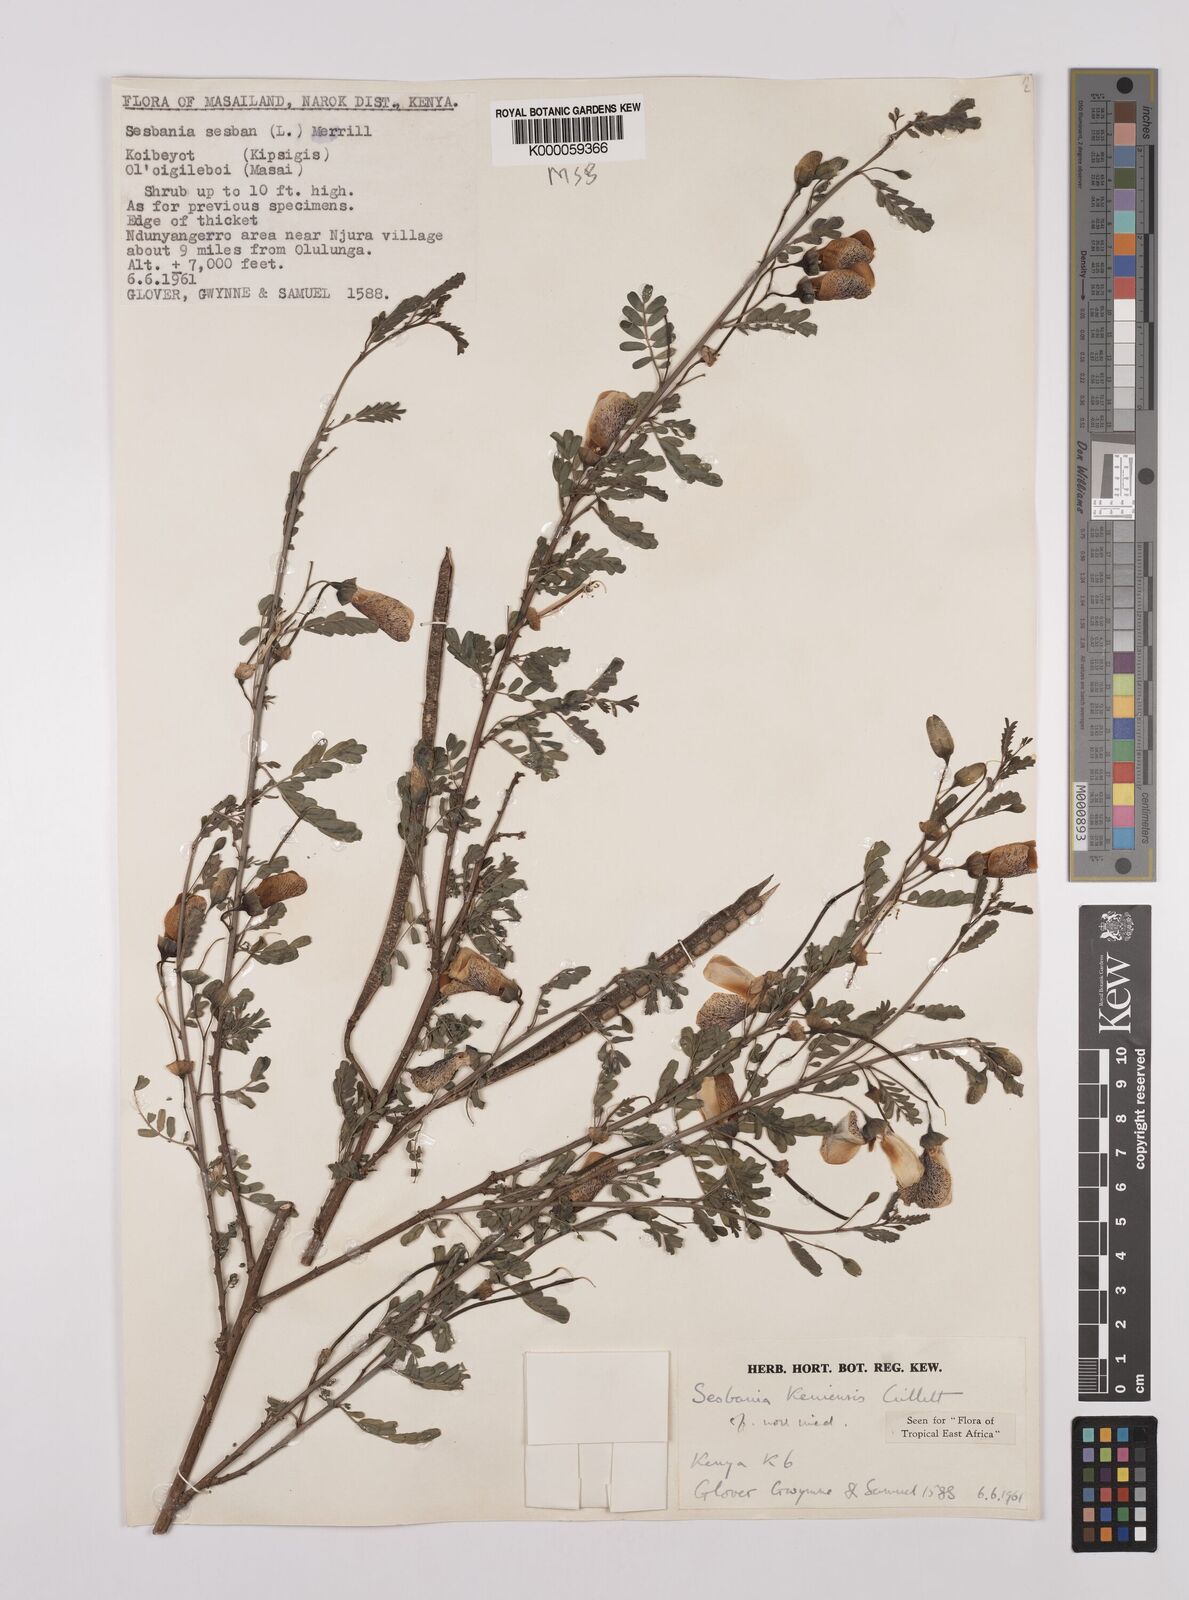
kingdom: Plantae
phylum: Tracheophyta
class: Magnoliopsida
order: Fabales
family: Fabaceae
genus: Sesbania
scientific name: Sesbania keniensis
